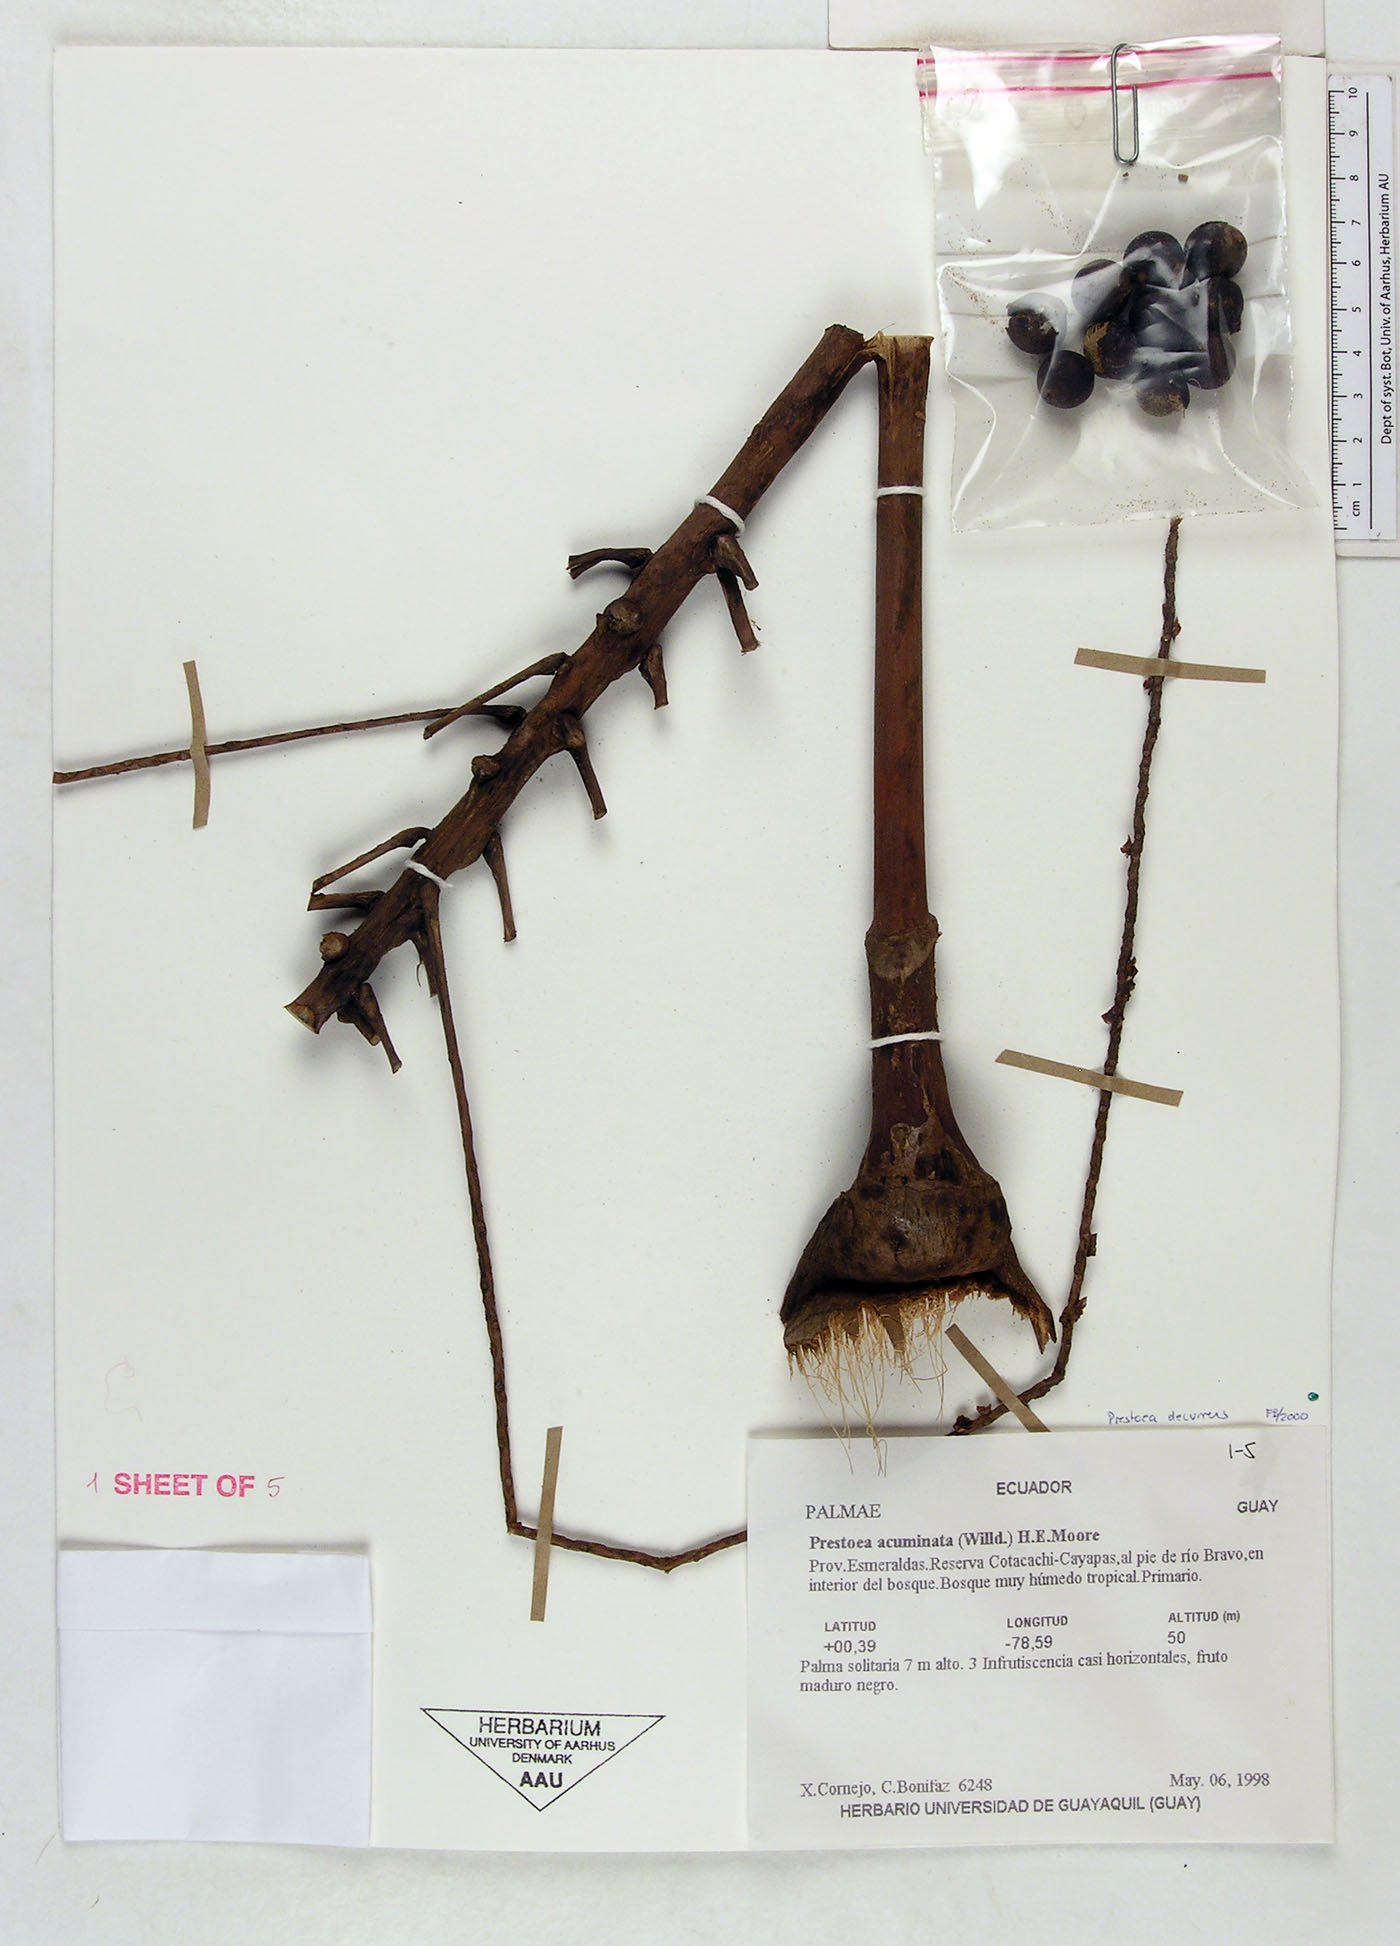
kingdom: Plantae
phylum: Tracheophyta
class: Liliopsida
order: Arecales
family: Arecaceae
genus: Prestoea
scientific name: Prestoea decurrens
